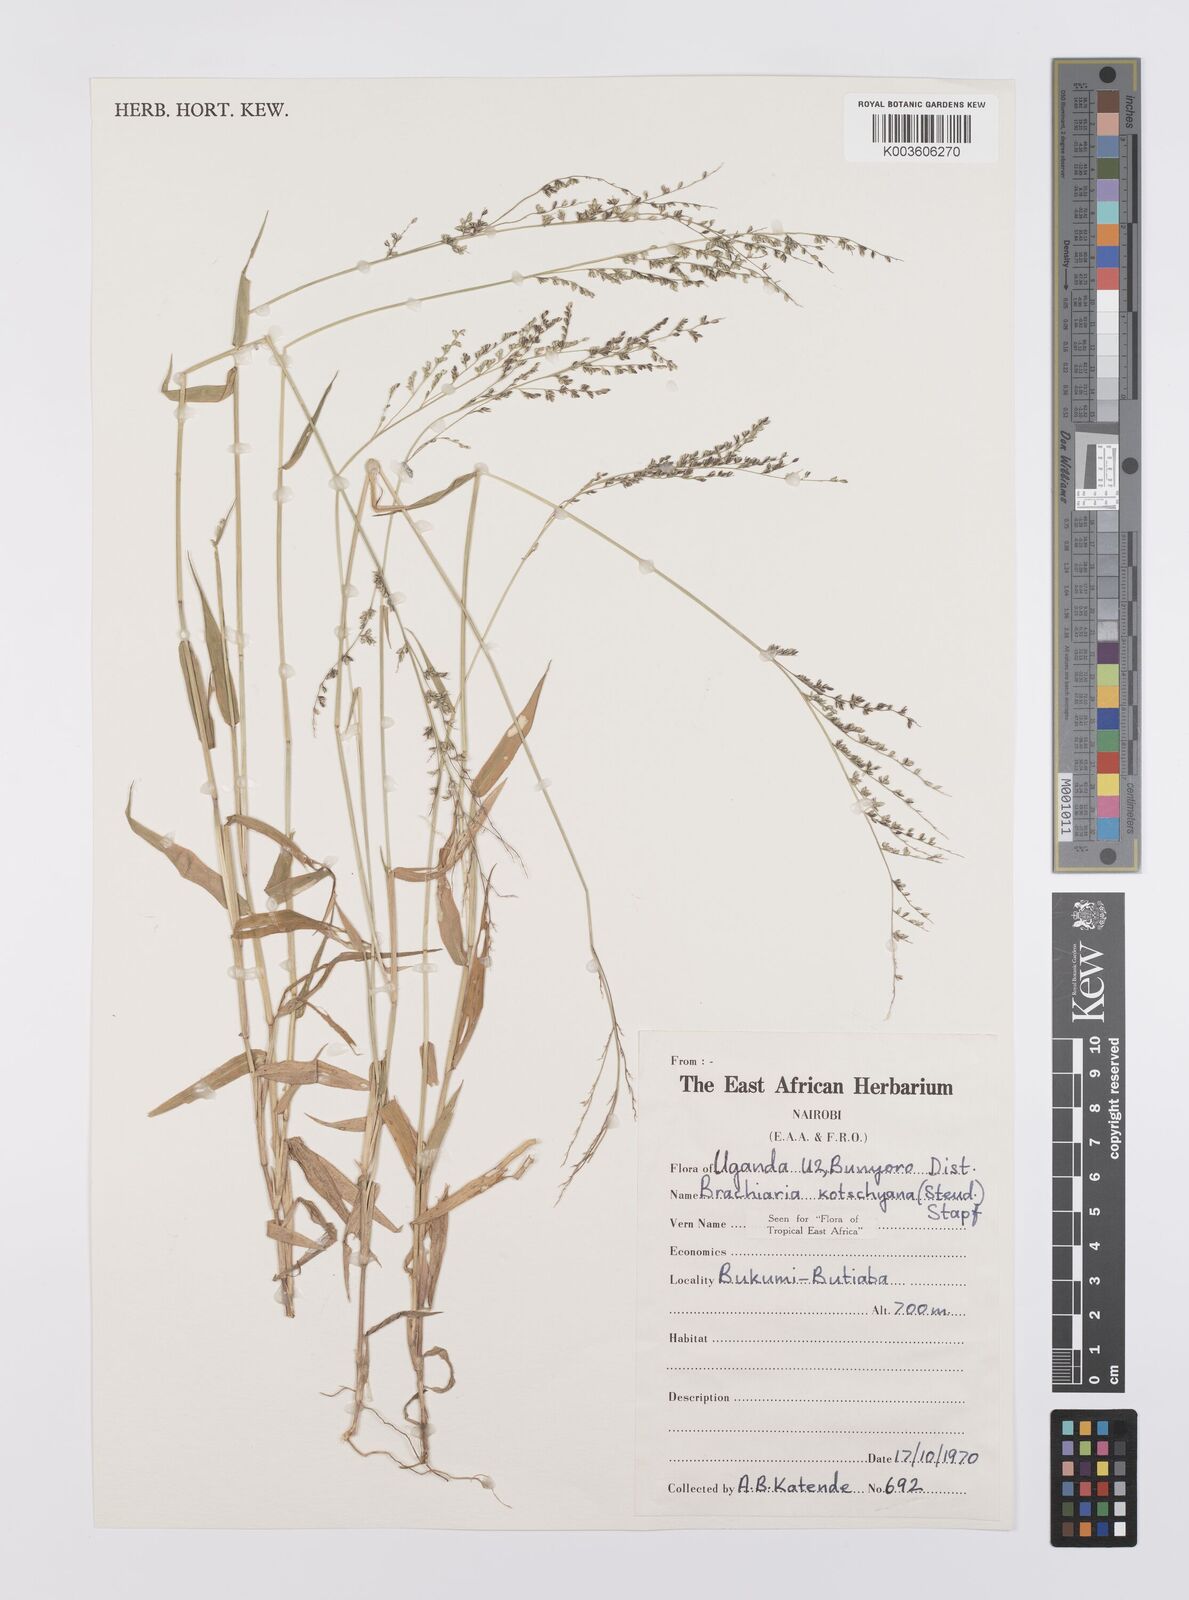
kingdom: Plantae
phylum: Tracheophyta
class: Liliopsida
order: Poales
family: Poaceae
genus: Urochloa
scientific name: Urochloa comata
